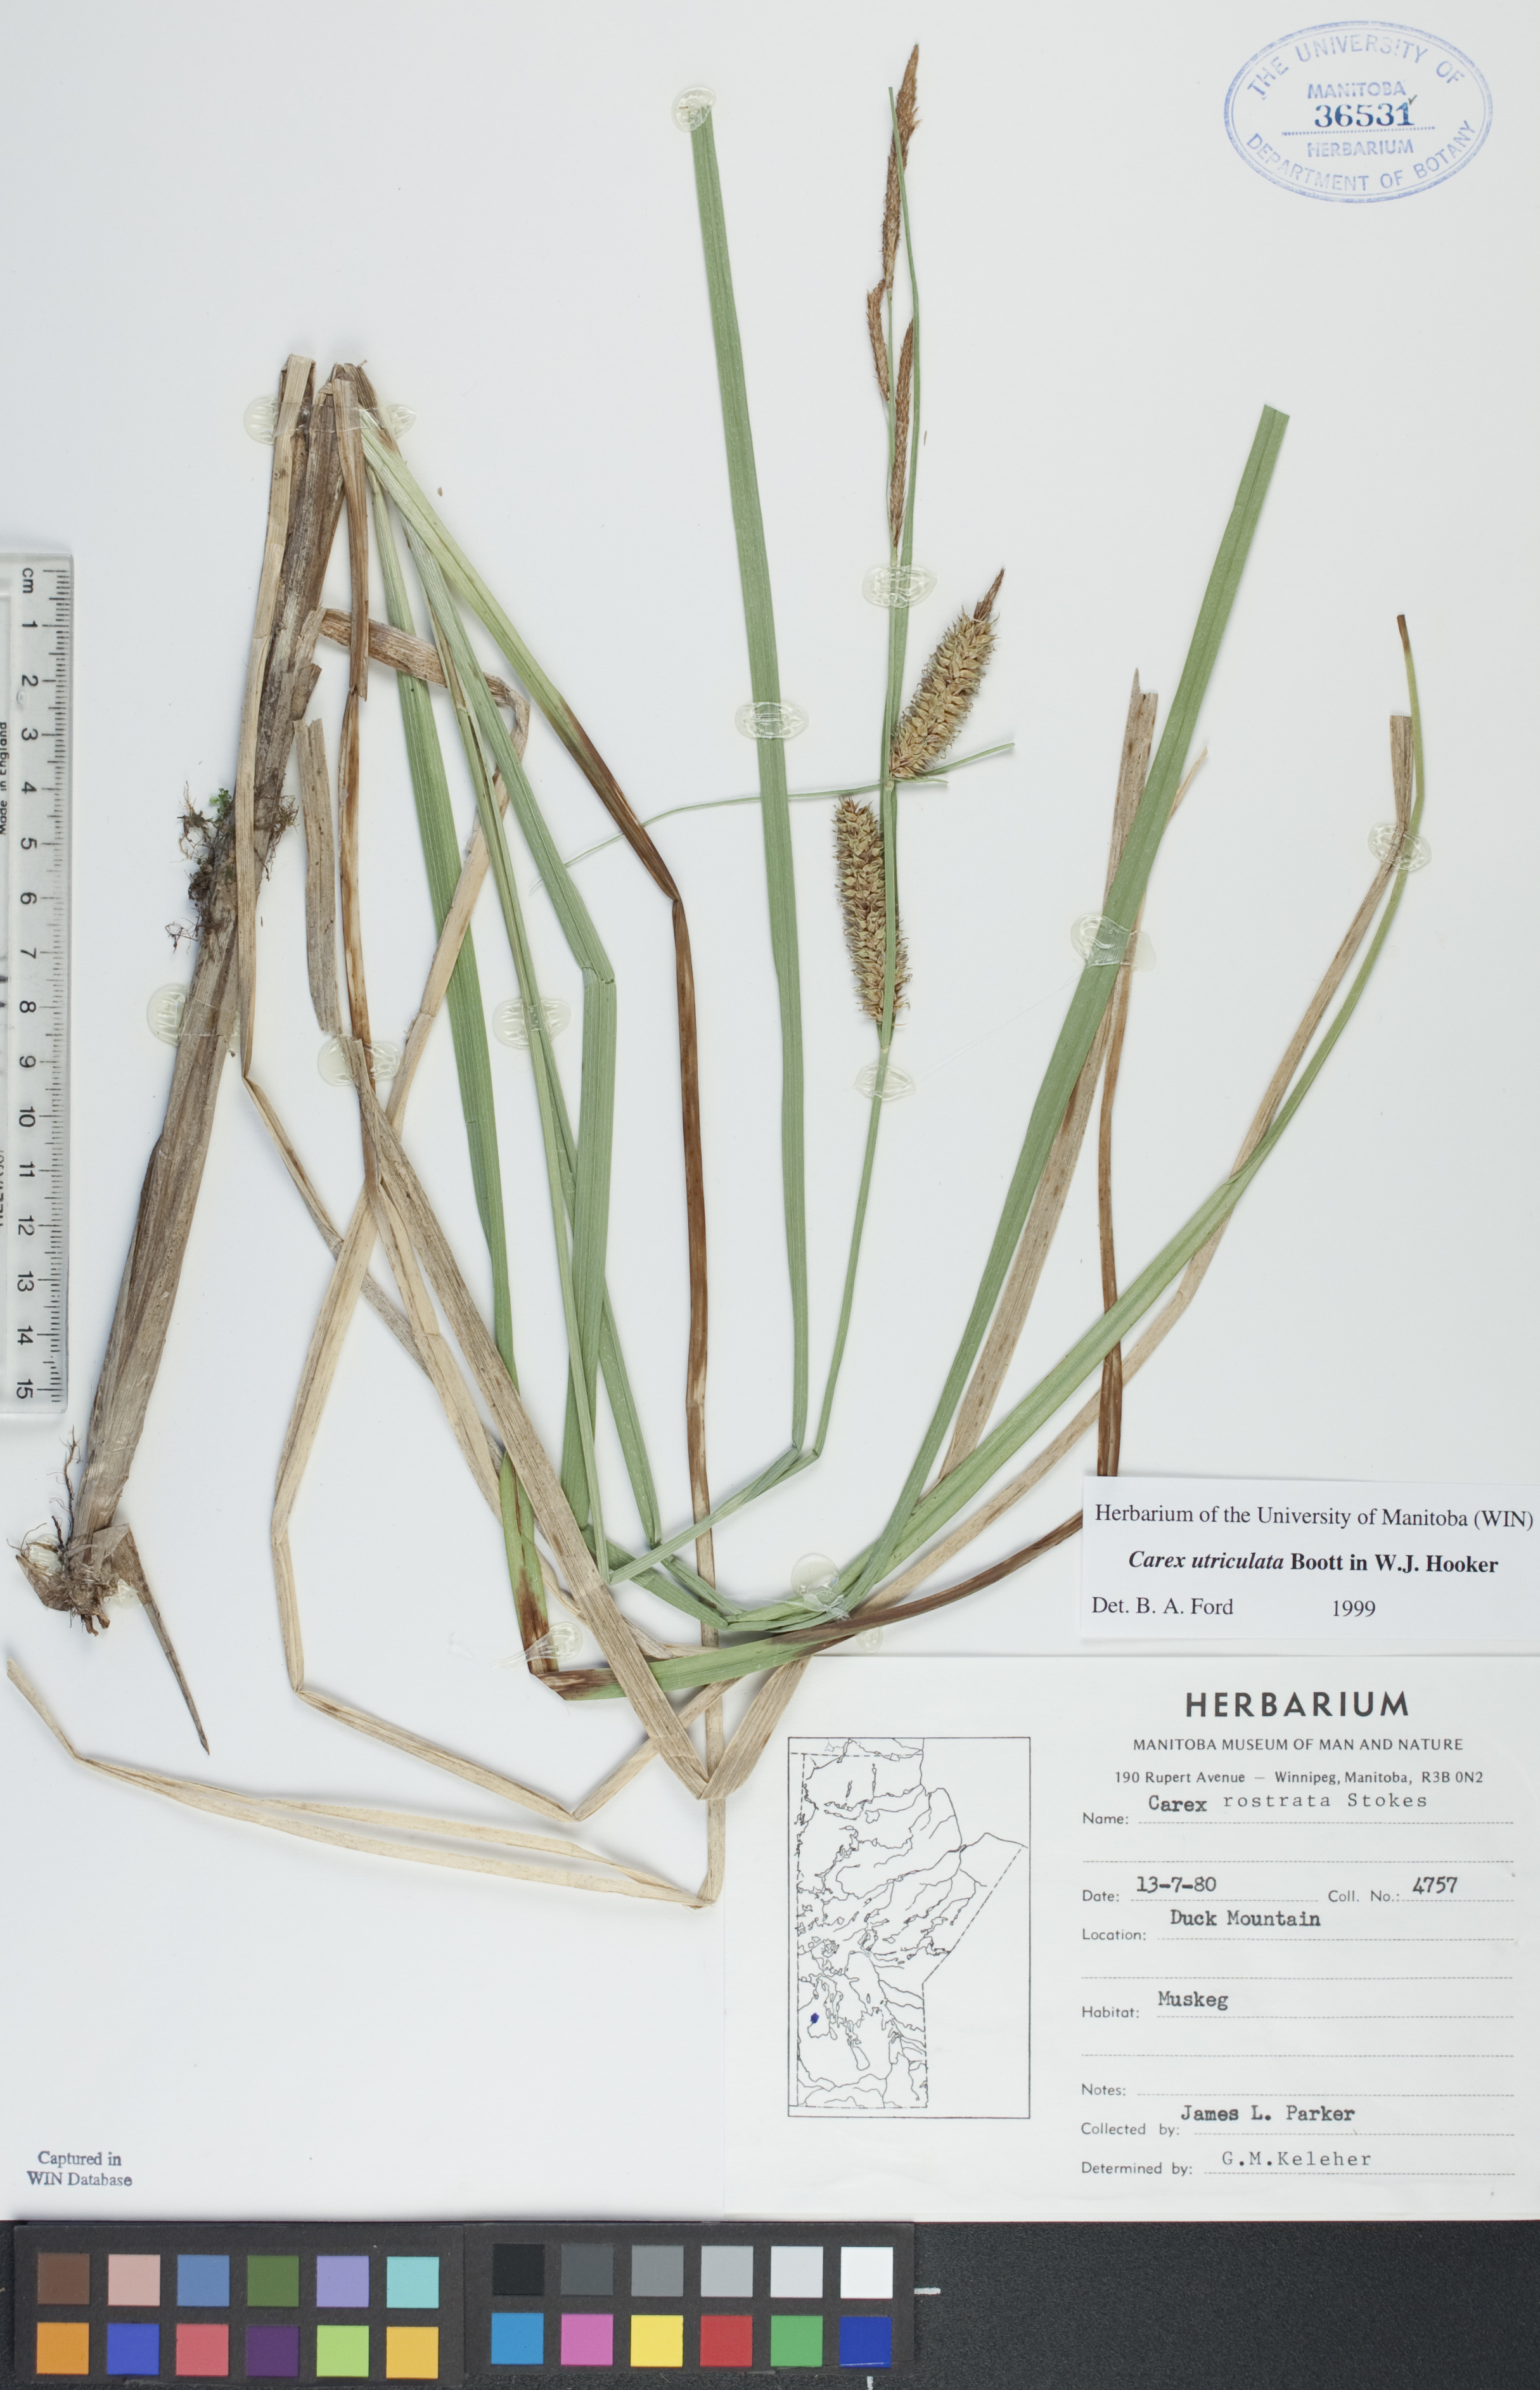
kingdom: Plantae
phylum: Tracheophyta
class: Liliopsida
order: Poales
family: Cyperaceae
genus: Carex
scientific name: Carex rostrata
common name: Bottle sedge
